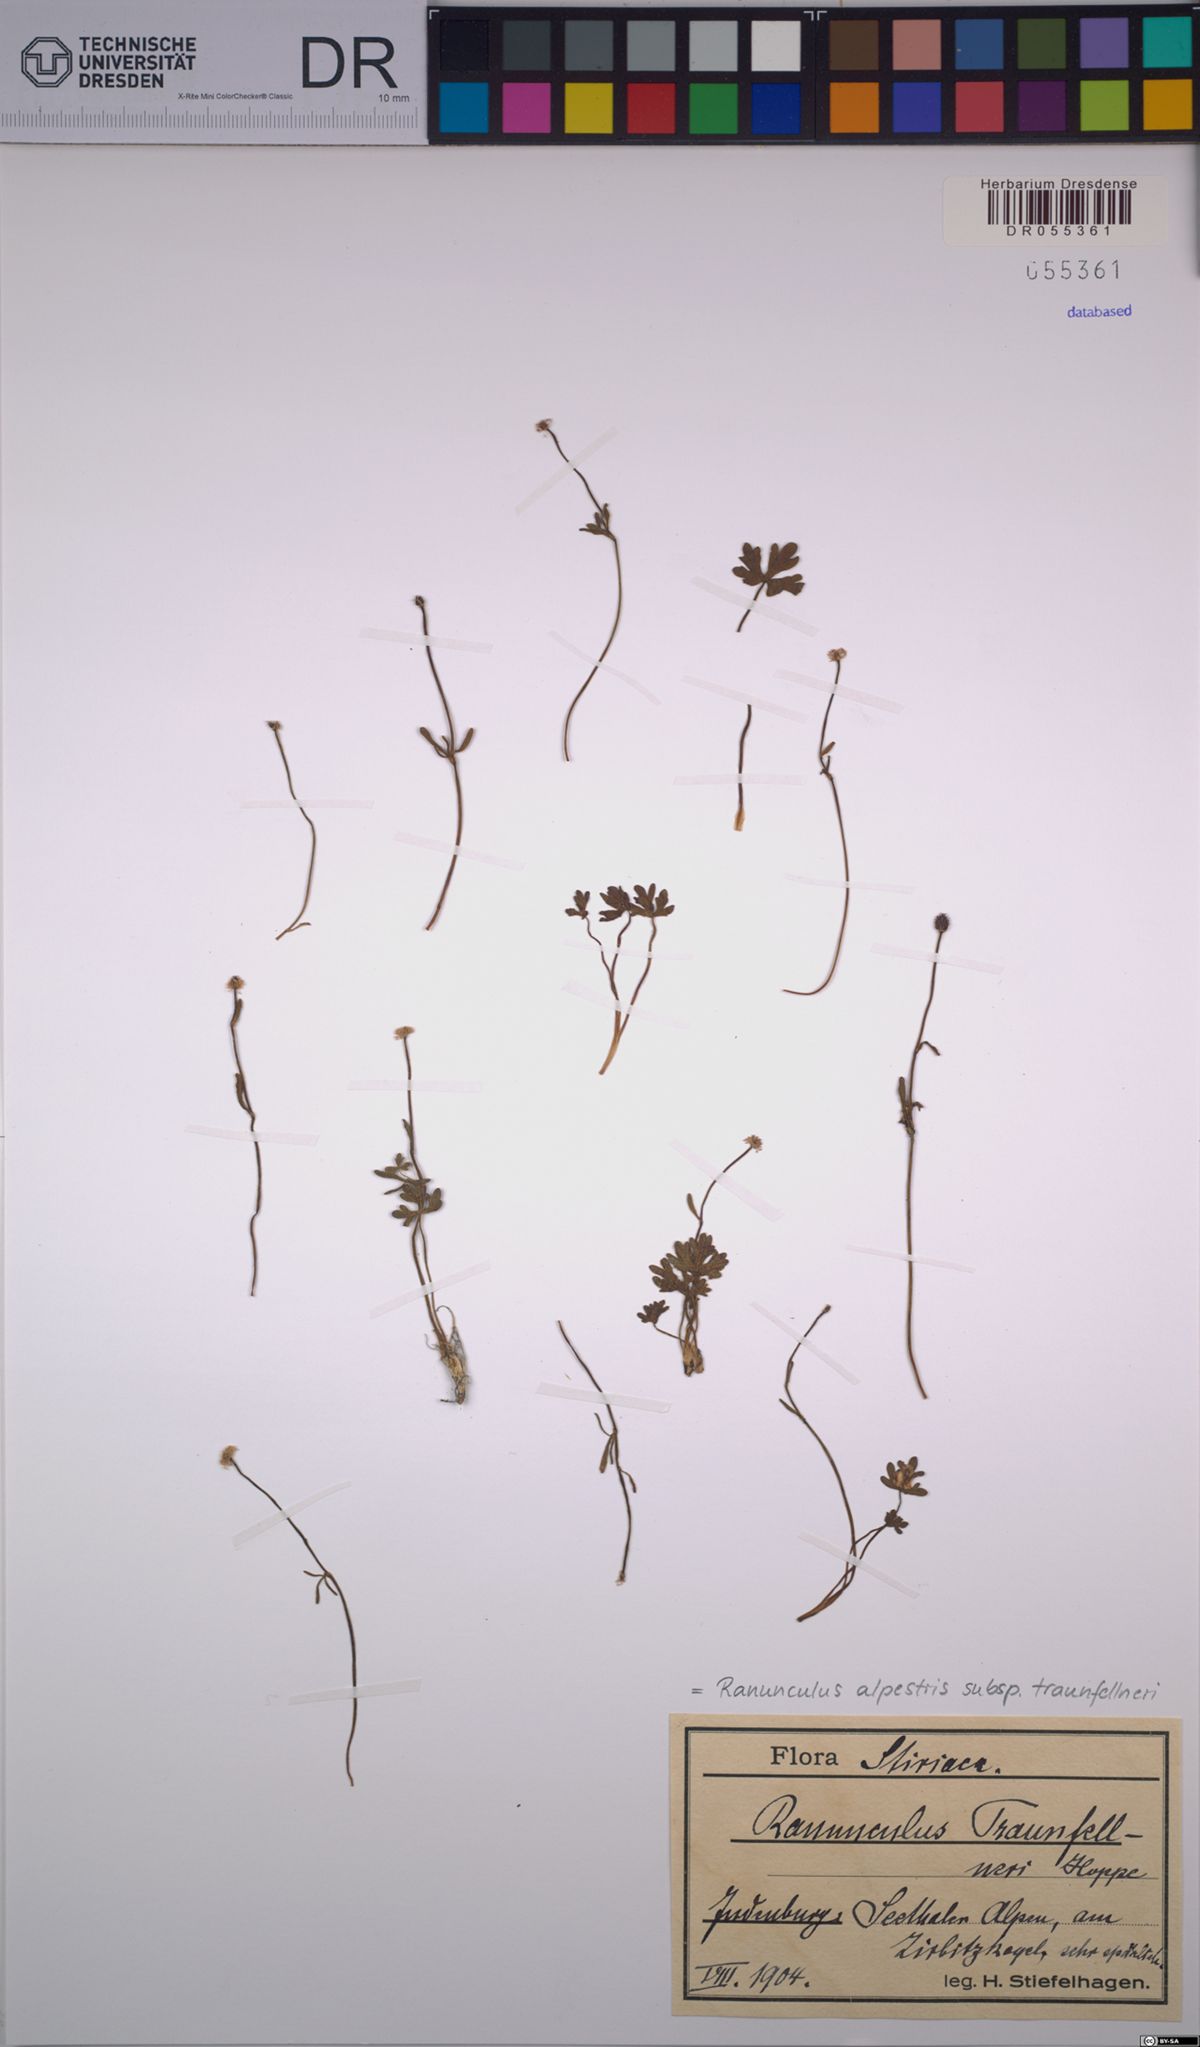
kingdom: Plantae
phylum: Tracheophyta
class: Magnoliopsida
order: Ranunculales
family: Ranunculaceae
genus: Ranunculus
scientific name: Ranunculus traunfellneri
